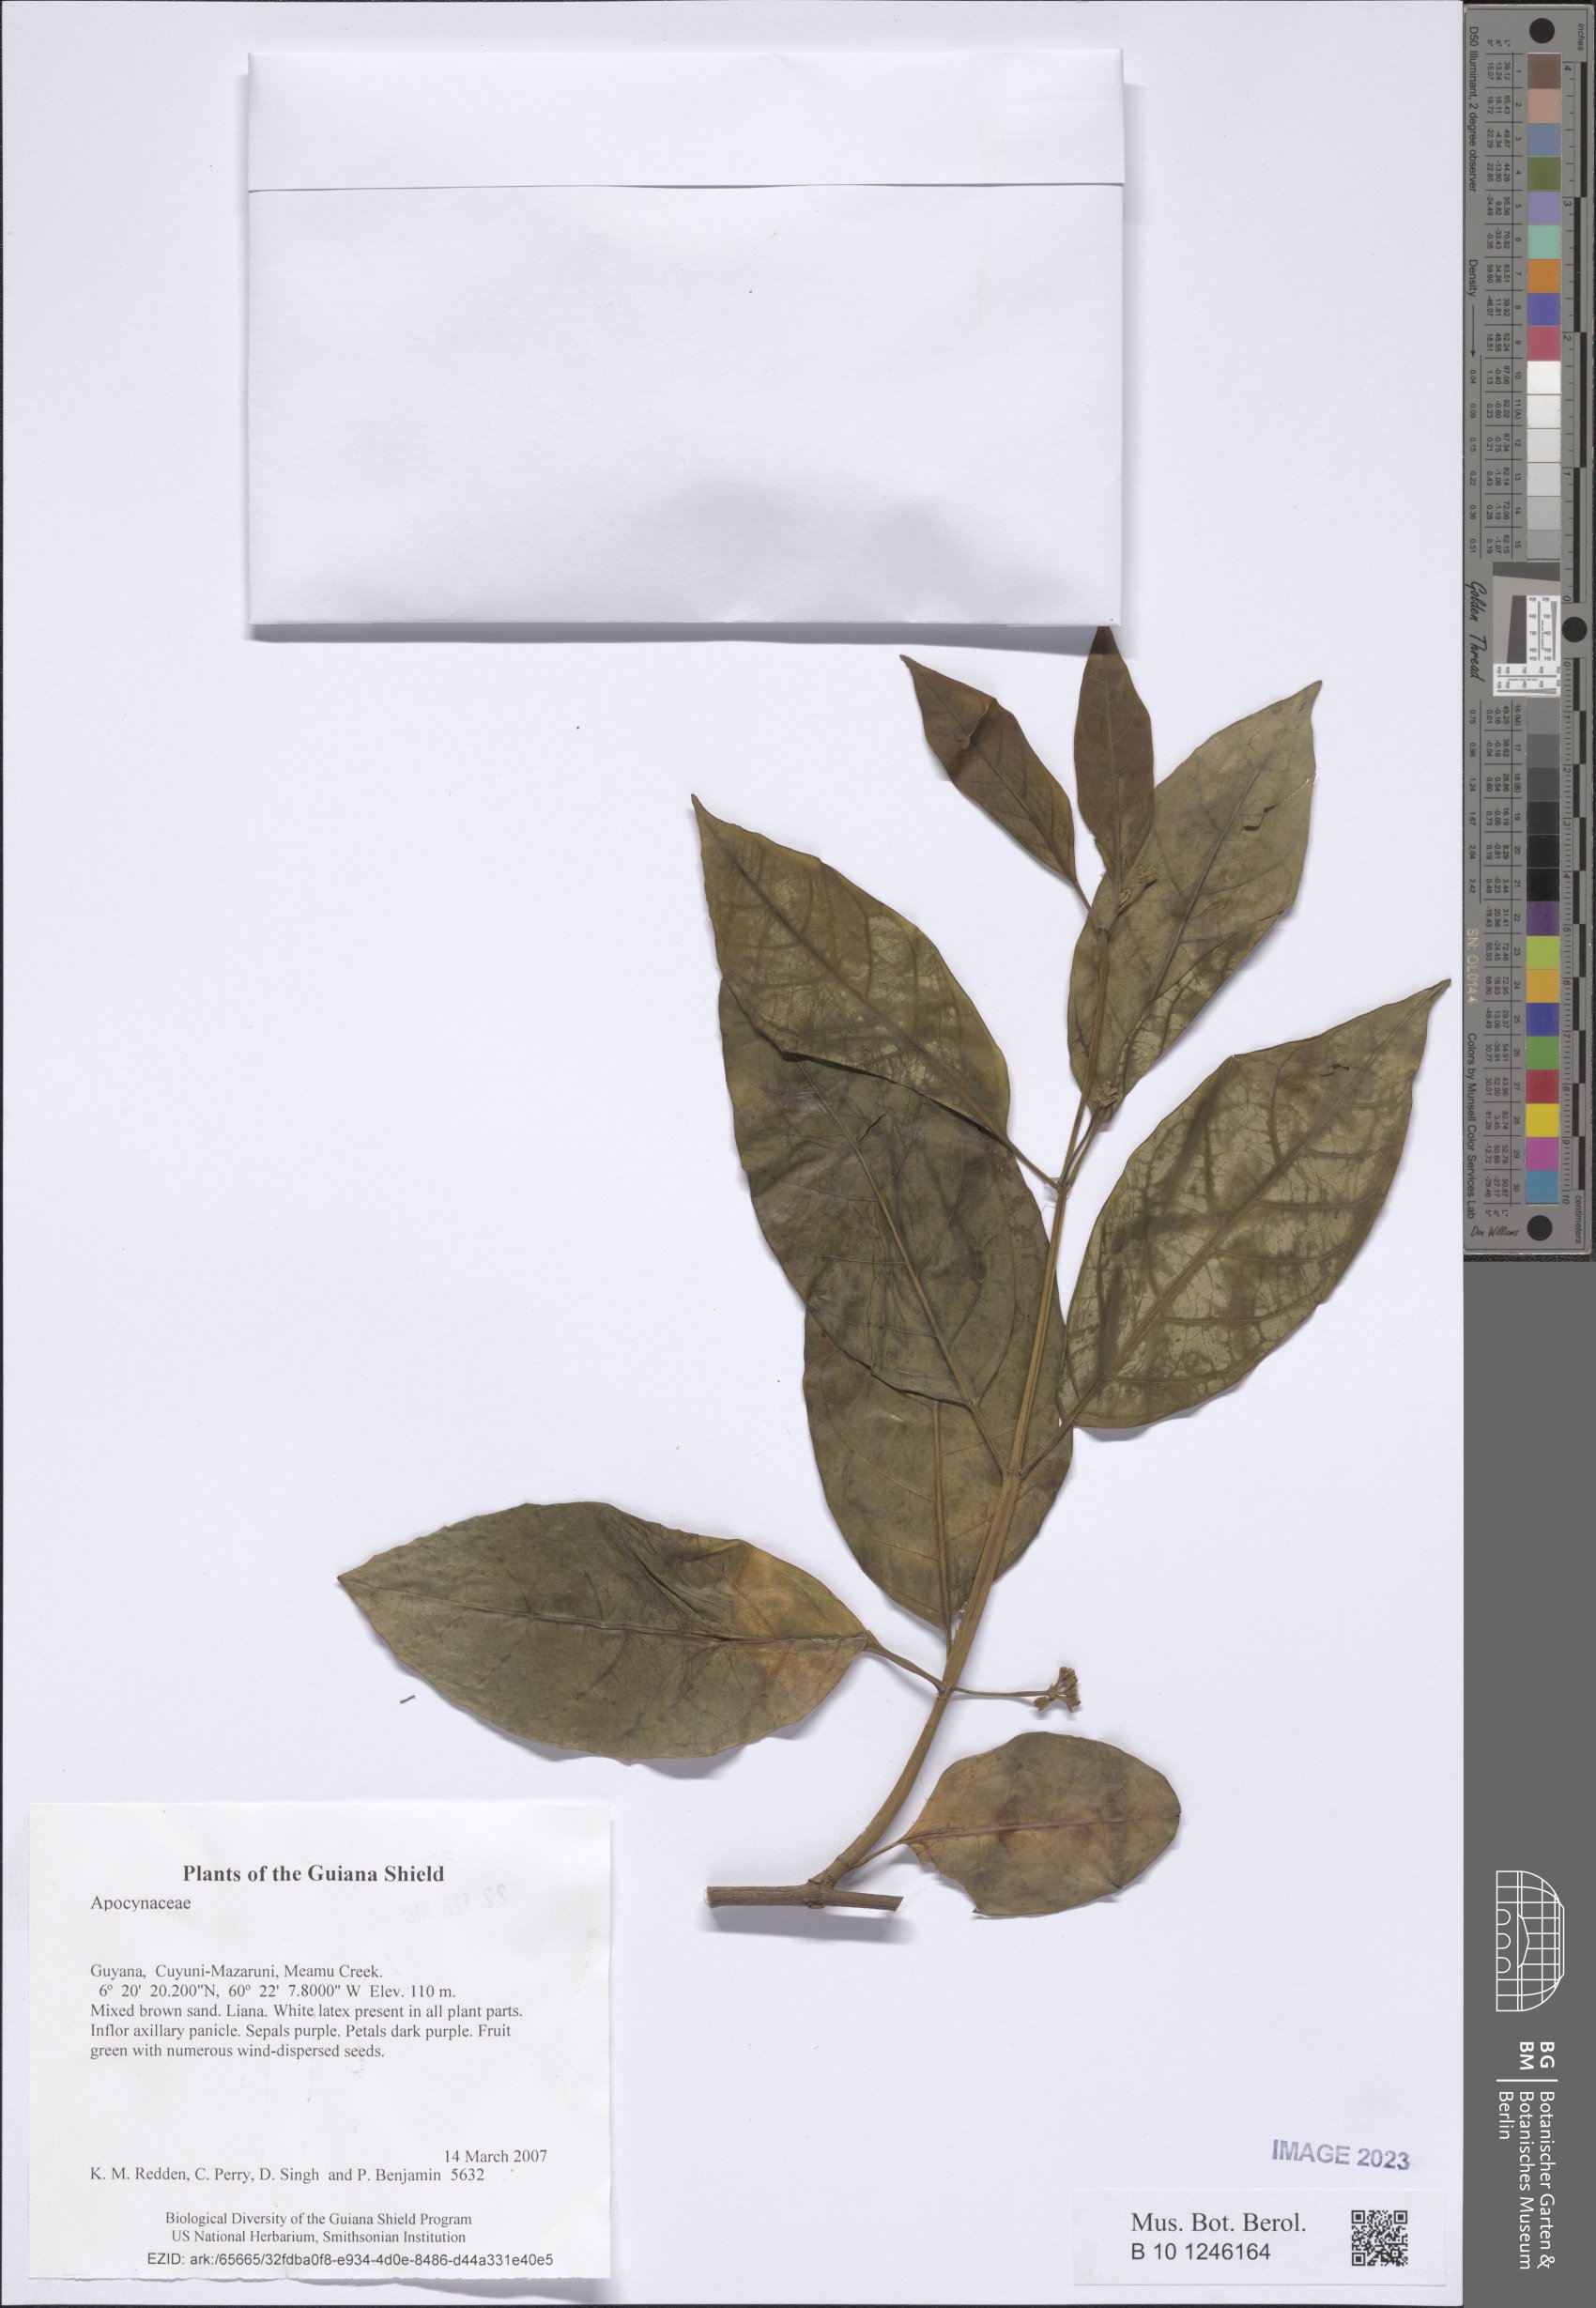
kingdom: Plantae
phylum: Tracheophyta
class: Magnoliopsida
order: Gentianales
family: Apocynaceae
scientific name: Apocynaceae
